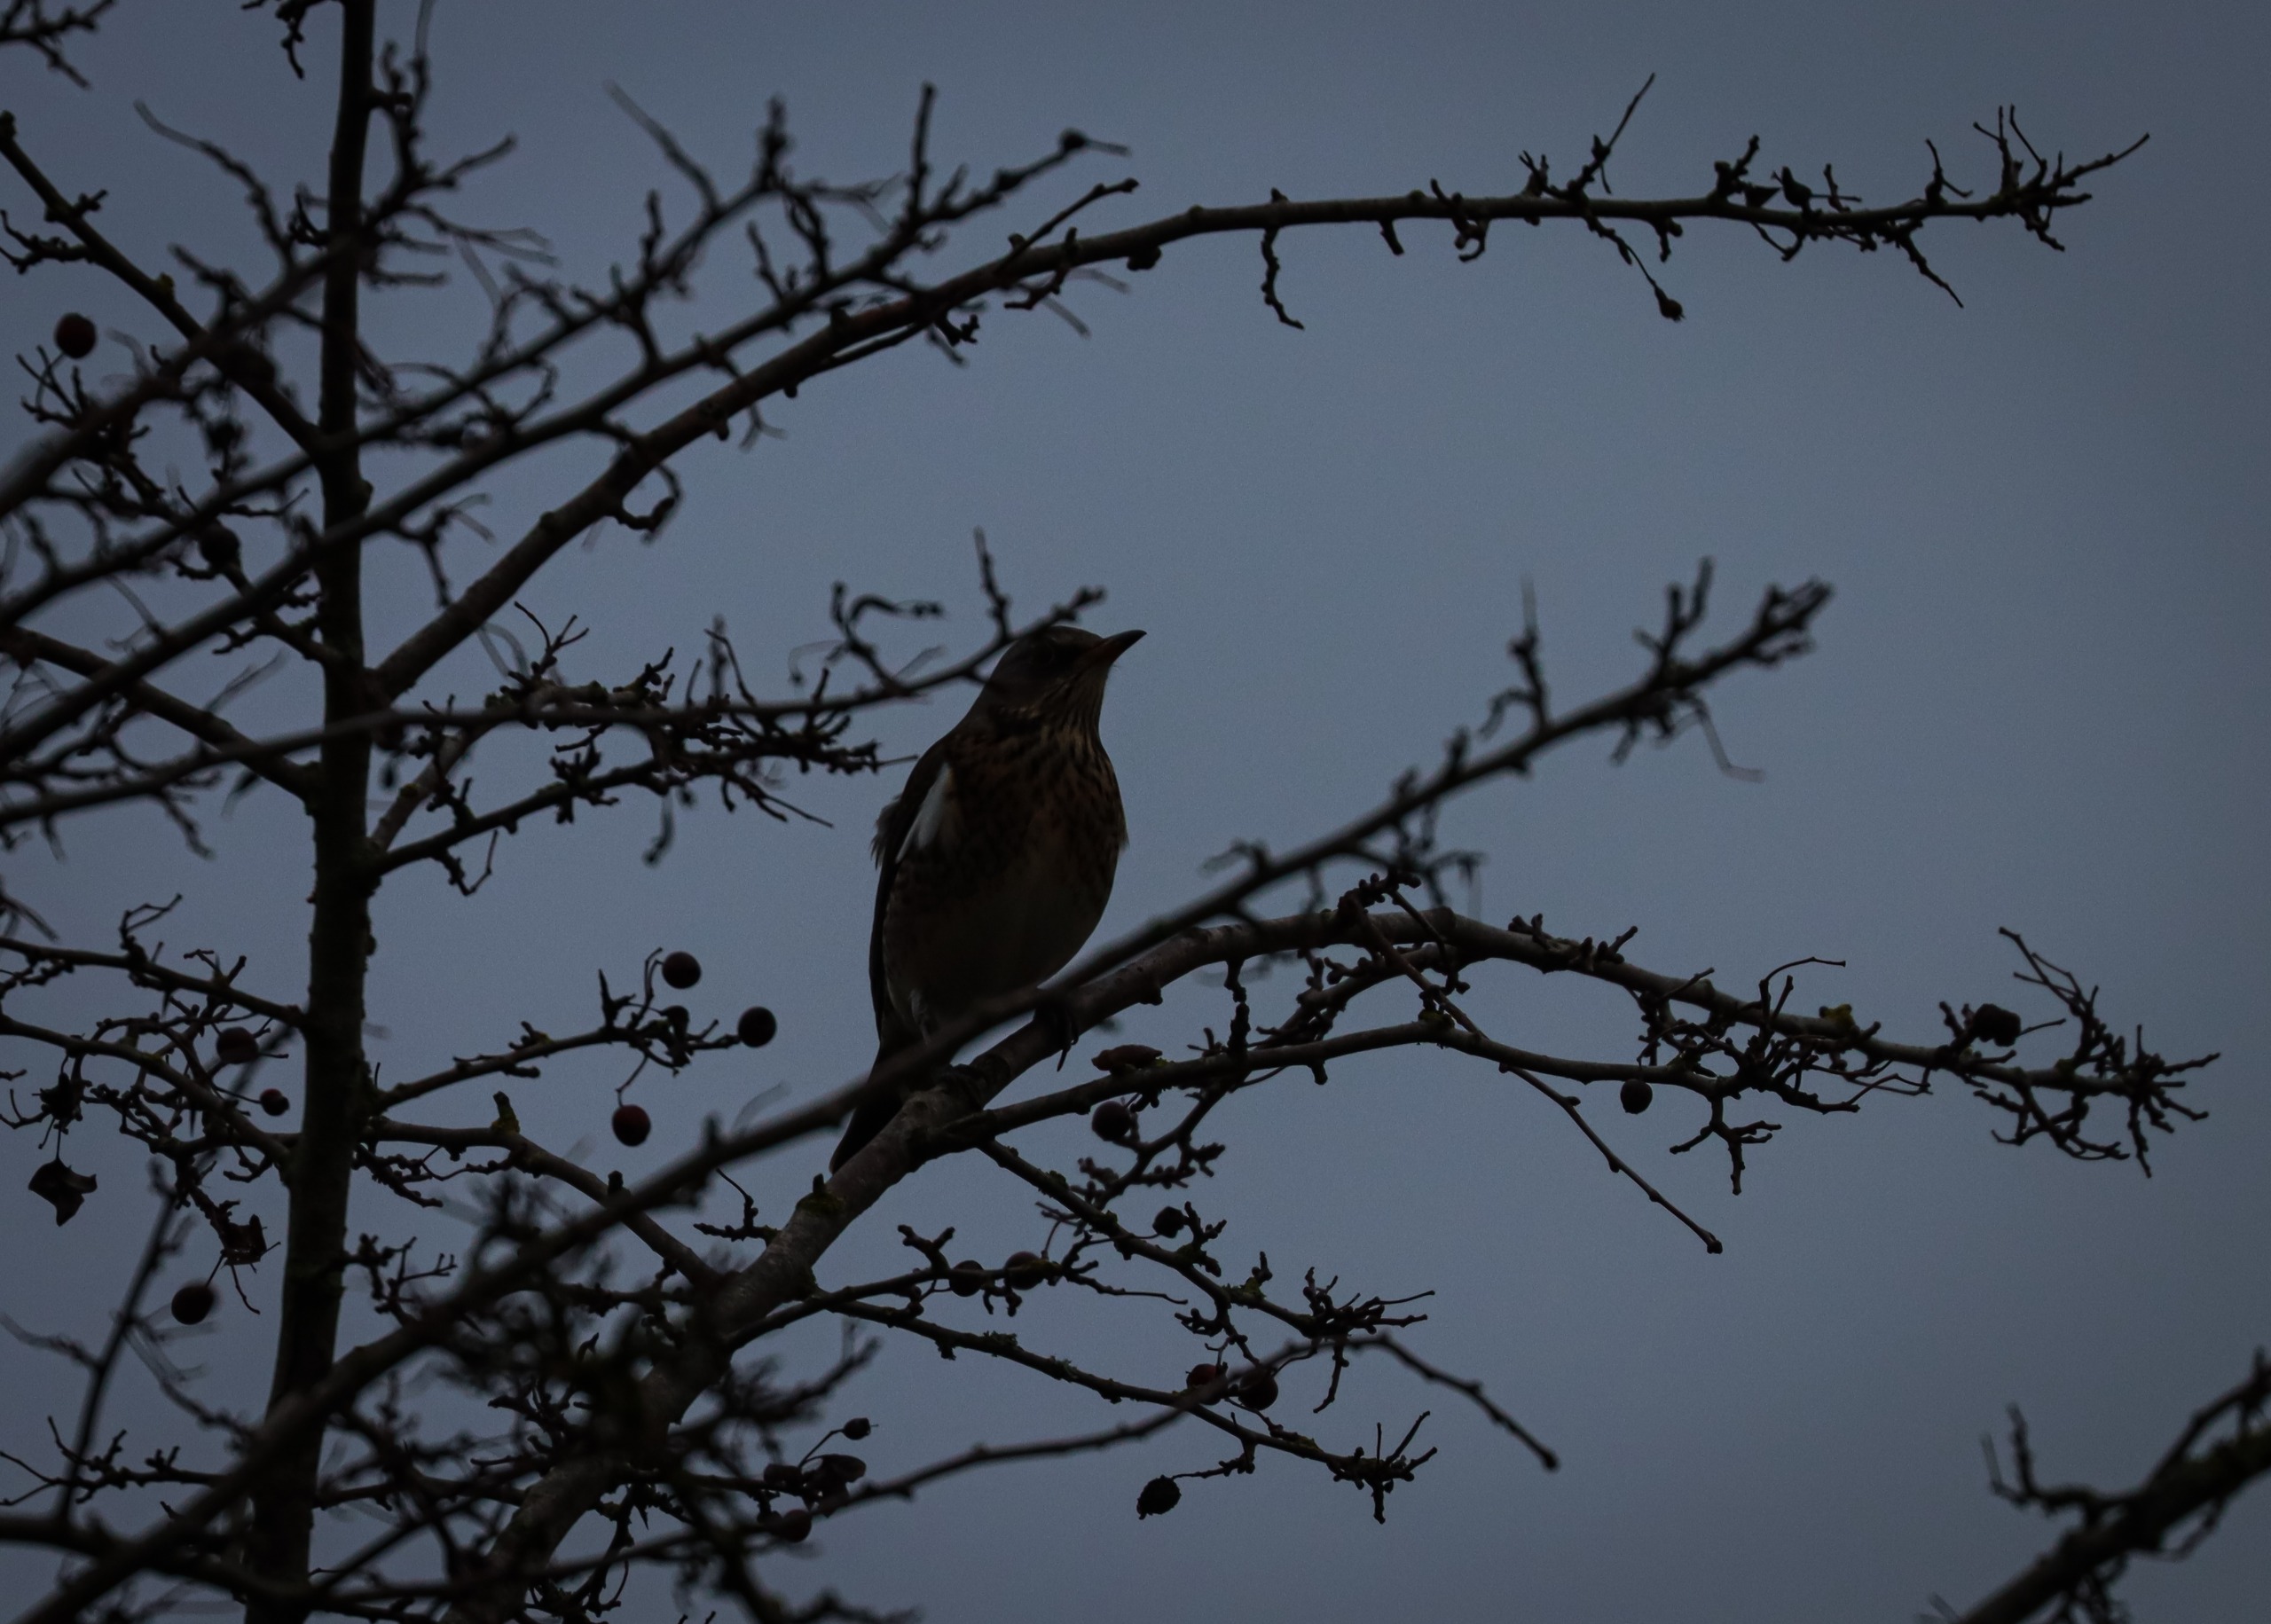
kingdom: Animalia
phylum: Chordata
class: Aves
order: Passeriformes
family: Turdidae
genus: Turdus
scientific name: Turdus pilaris
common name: Sjagger
